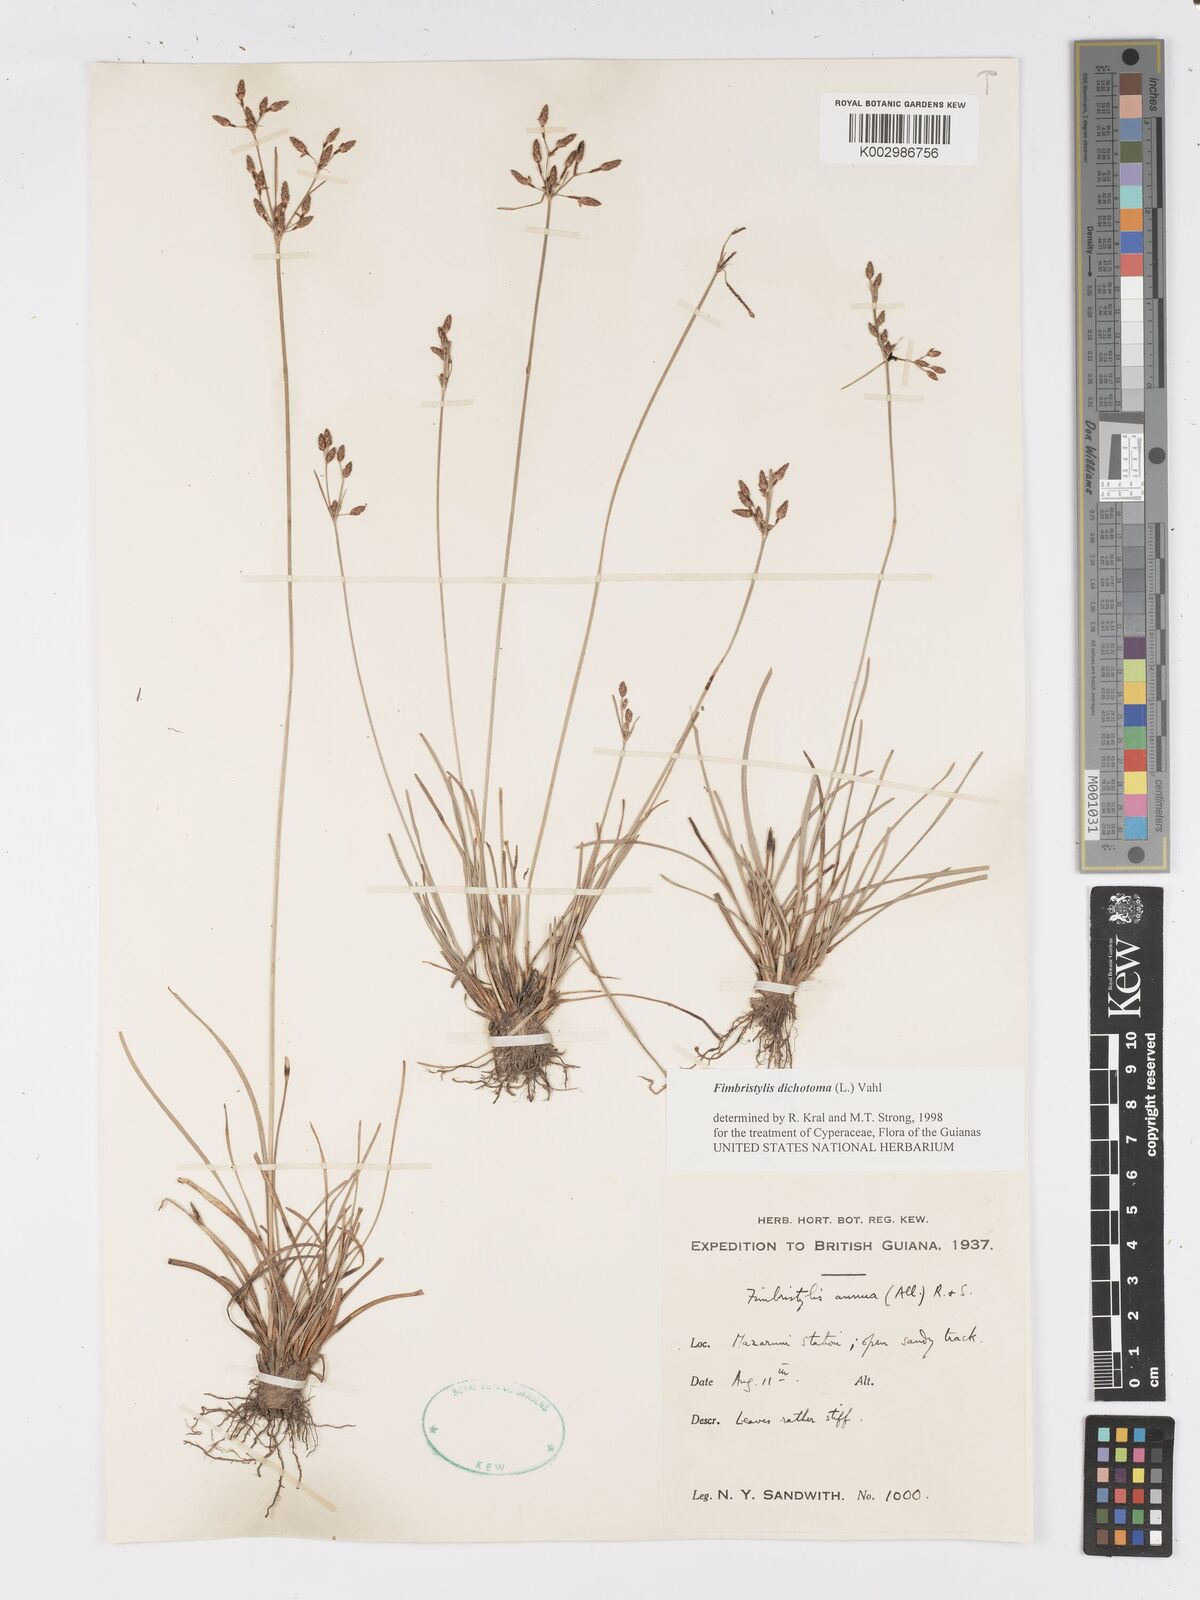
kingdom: Plantae
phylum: Tracheophyta
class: Liliopsida
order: Poales
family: Cyperaceae
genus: Fimbristylis
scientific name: Fimbristylis dichotoma
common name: Forked fimbry
